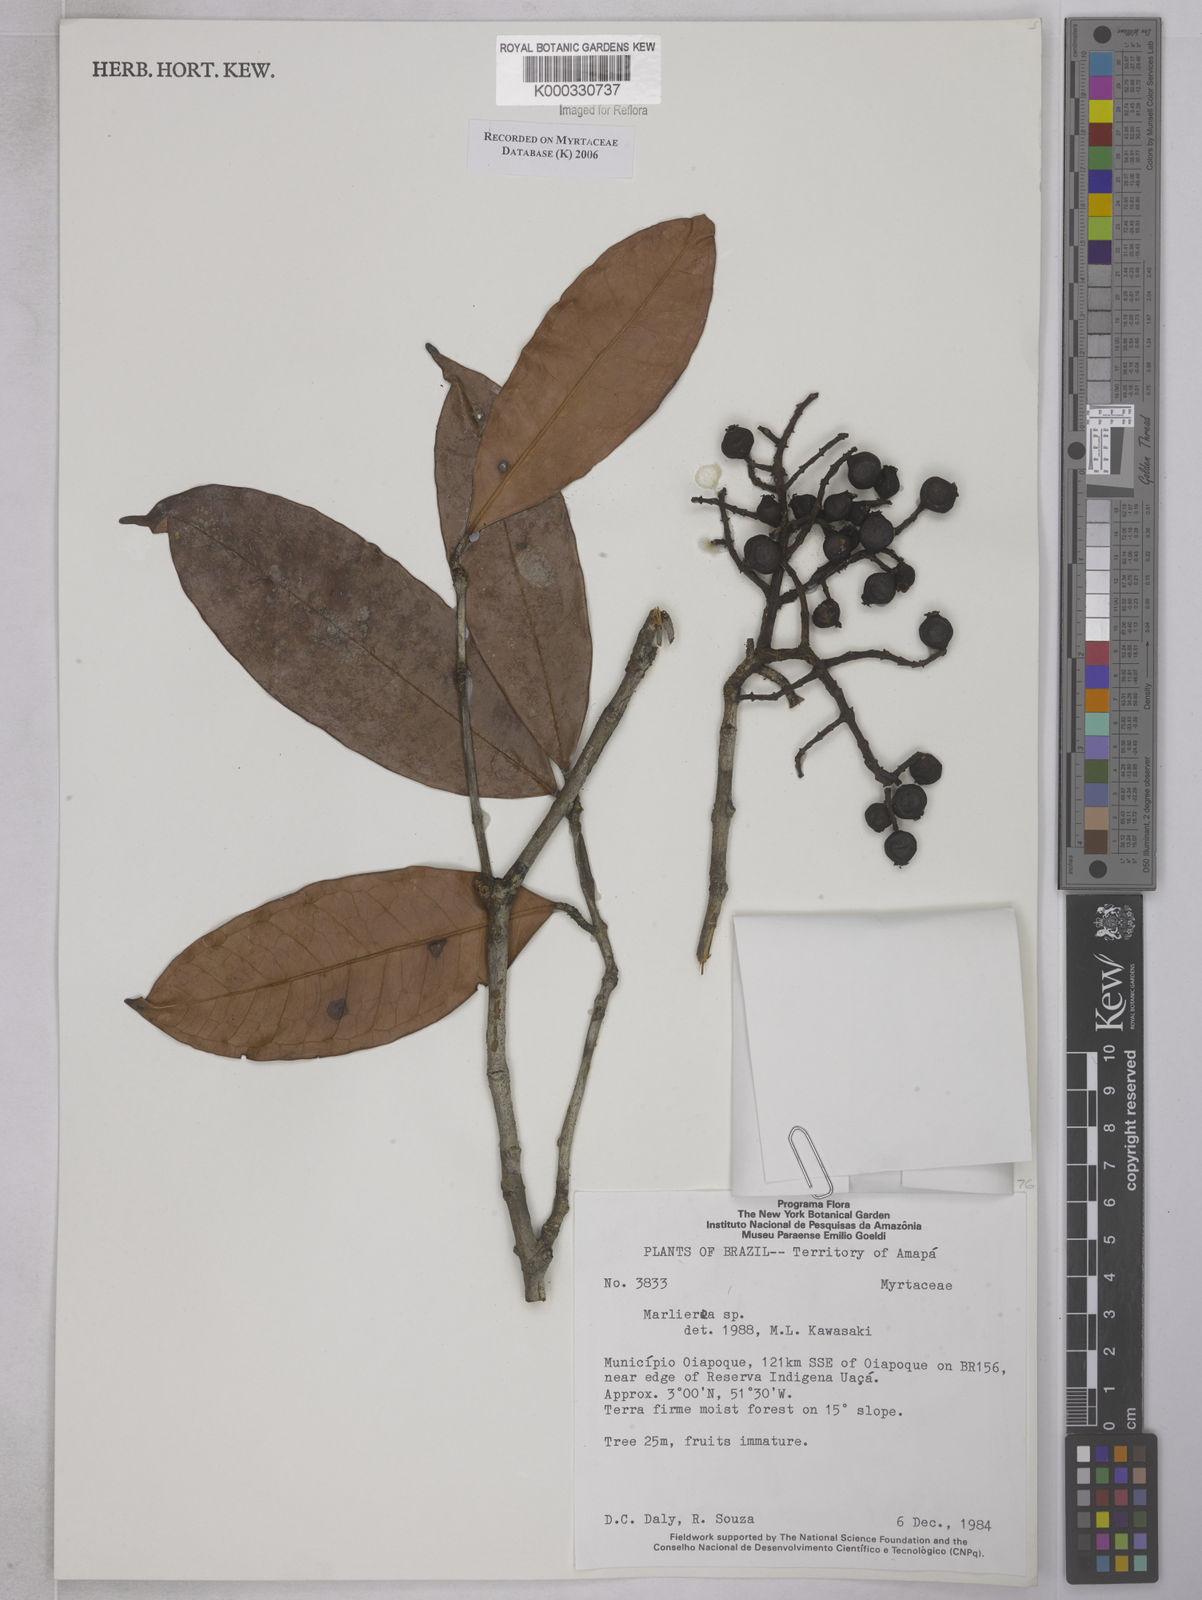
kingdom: Plantae
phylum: Tracheophyta
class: Magnoliopsida
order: Myrtales
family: Myrtaceae
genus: Marlierea
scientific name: Marlierea
